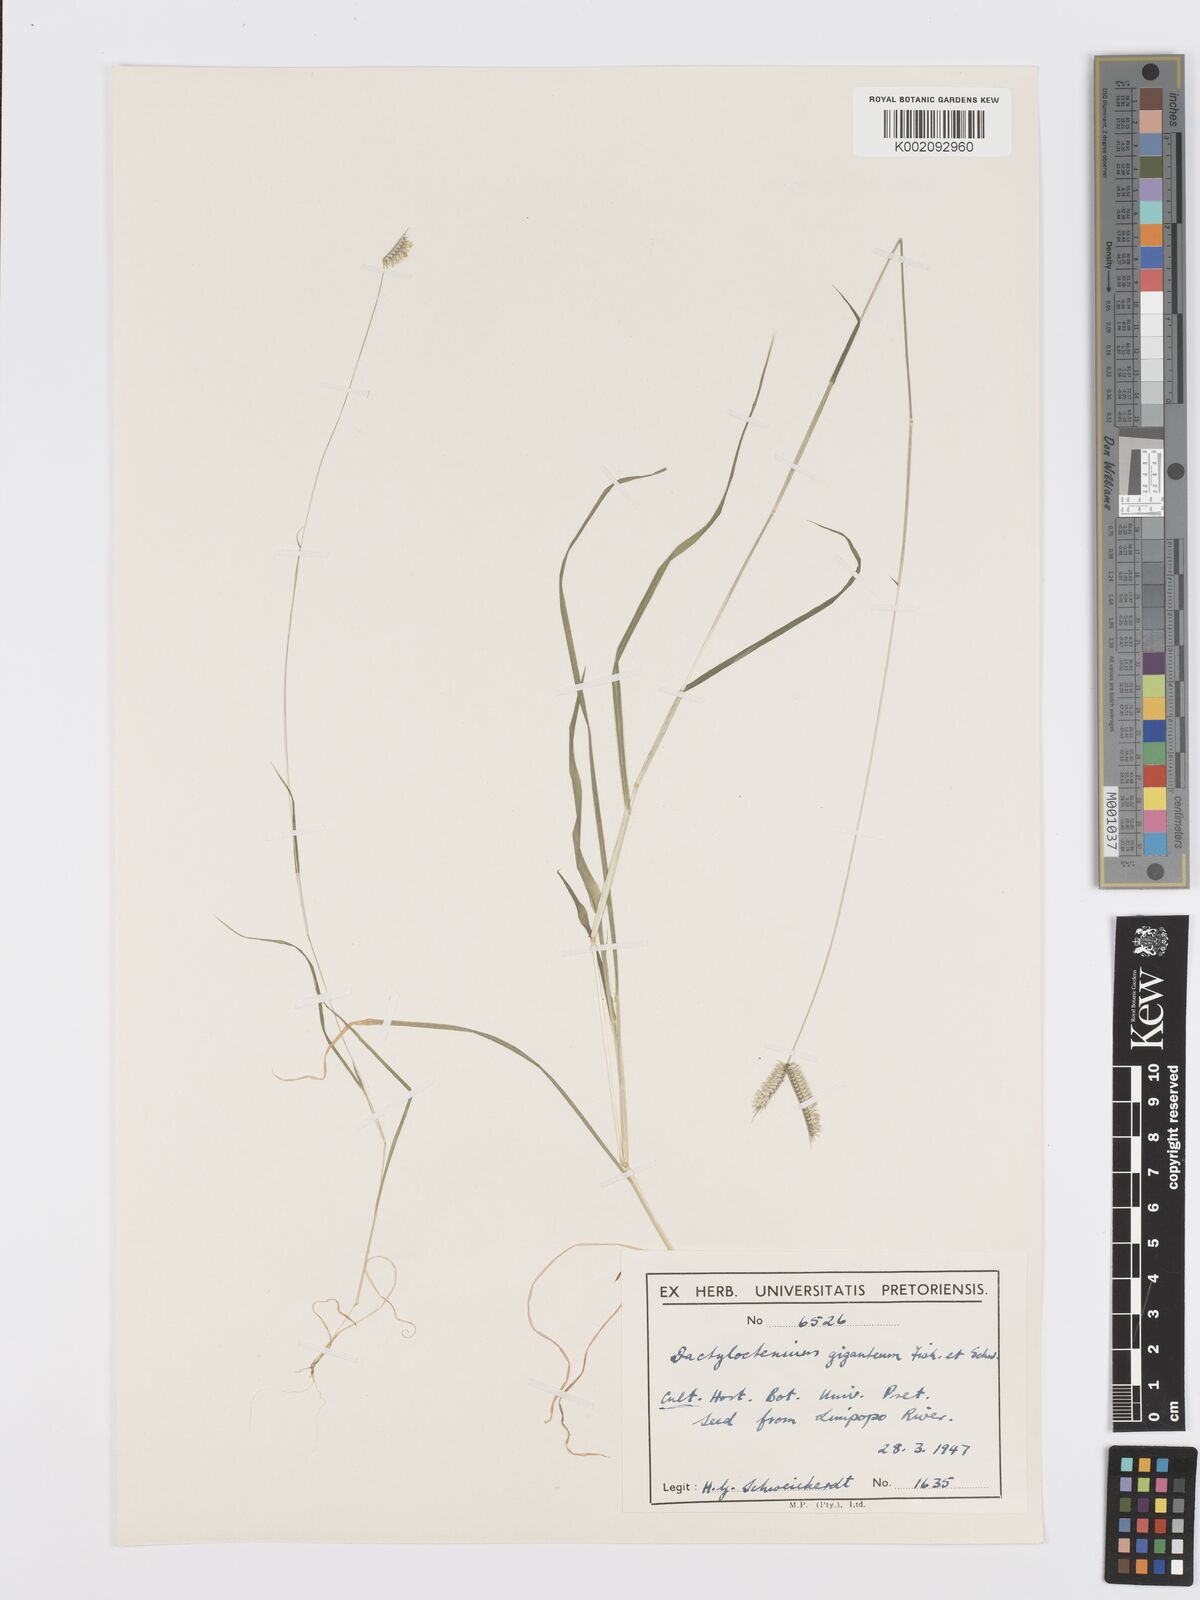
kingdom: Plantae
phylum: Tracheophyta
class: Liliopsida
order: Poales
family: Poaceae
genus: Dactyloctenium
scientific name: Dactyloctenium giganteum
